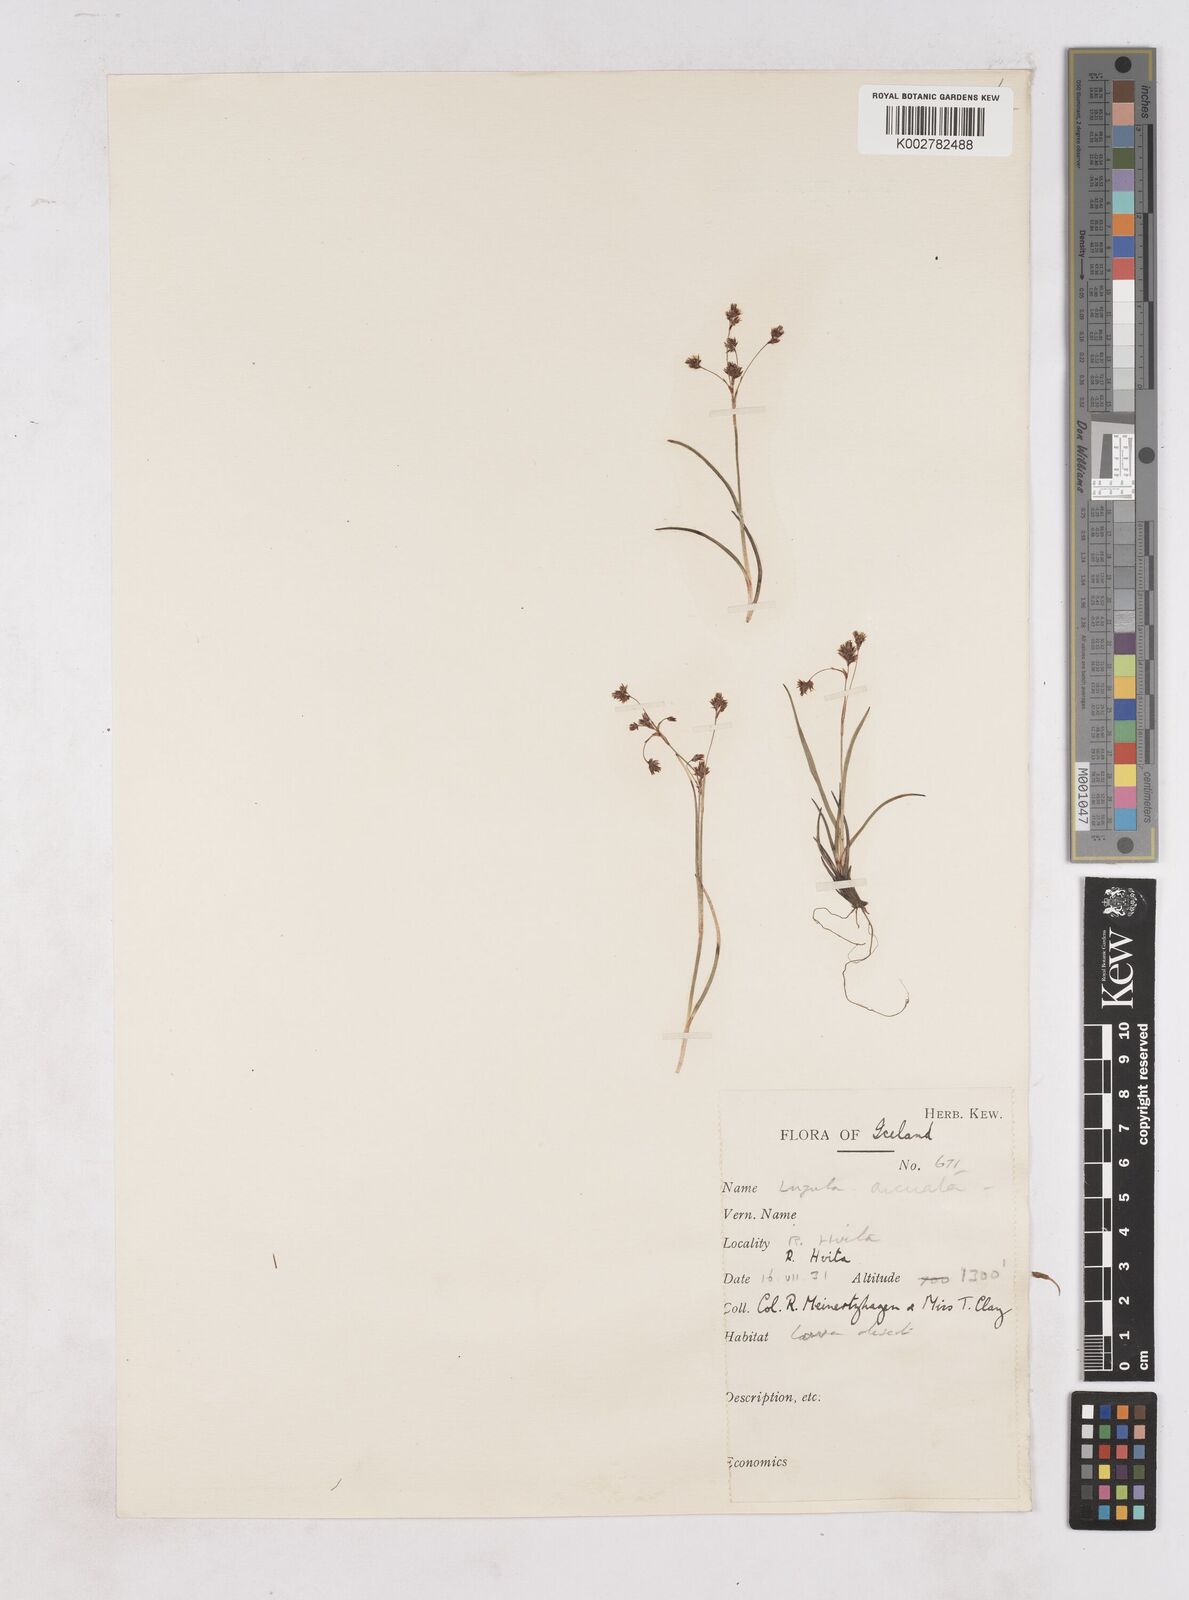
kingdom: Plantae
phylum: Tracheophyta
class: Liliopsida
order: Poales
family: Juncaceae
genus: Luzula
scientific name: Luzula arcuata
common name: Curved wood-rush
